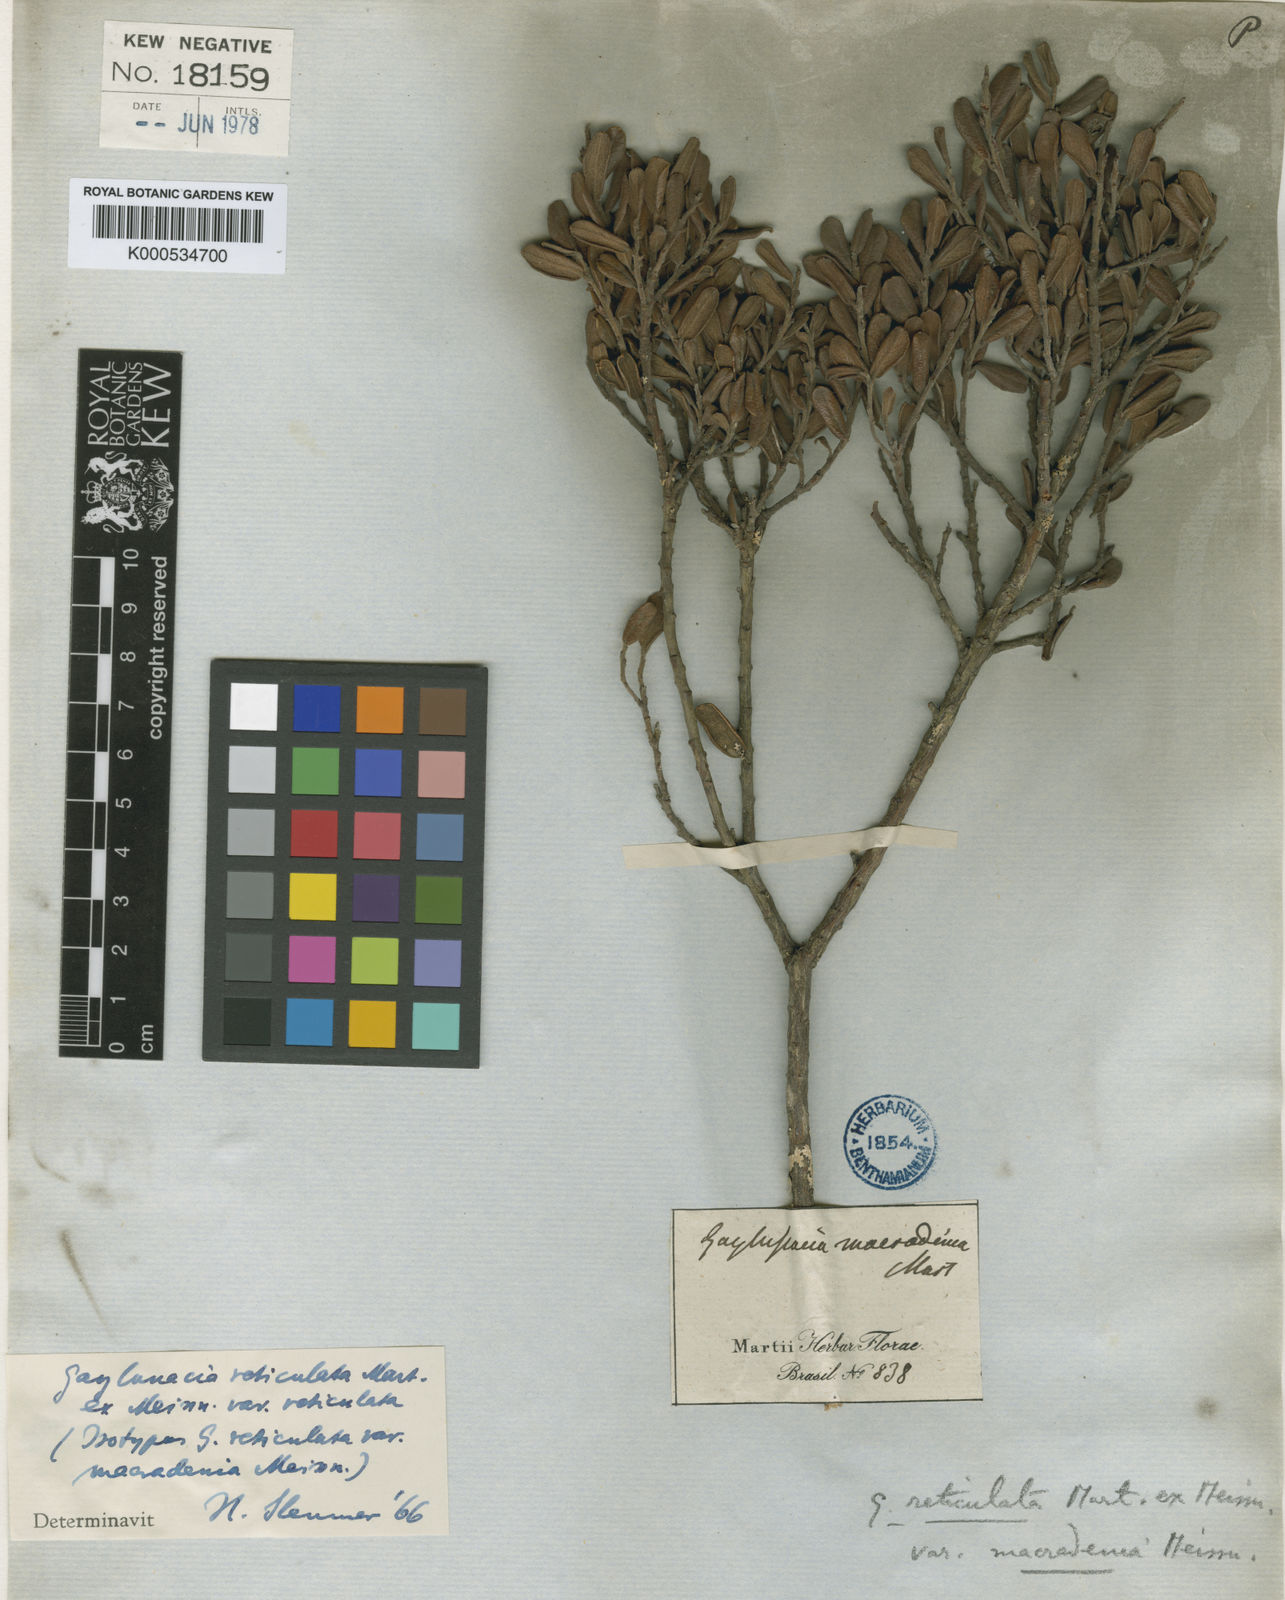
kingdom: Plantae
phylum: Tracheophyta
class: Magnoliopsida
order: Ericales
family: Ericaceae
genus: Gaylussacia
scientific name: Gaylussacia reticulata
